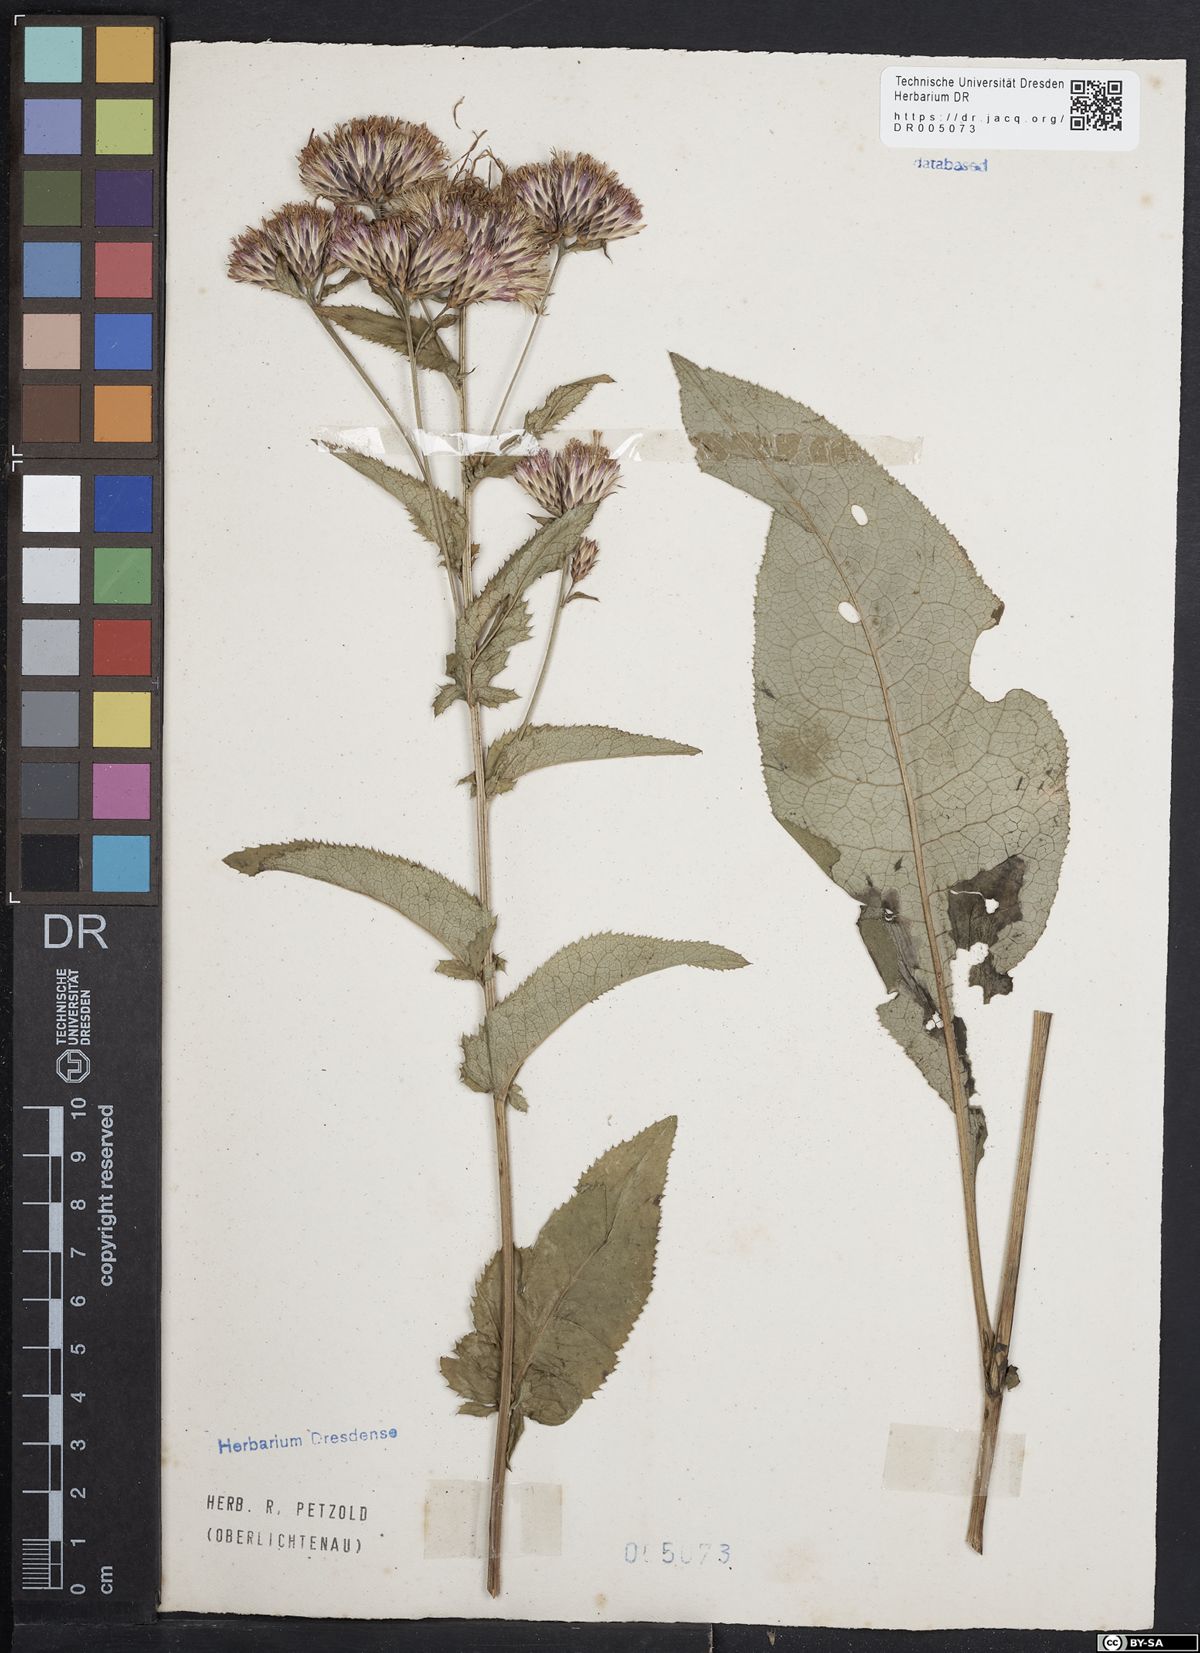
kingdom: Plantae
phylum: Tracheophyta
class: Magnoliopsida
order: Asterales
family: Asteraceae
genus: Serratula
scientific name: Serratula tinctoria
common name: Saw-wort
